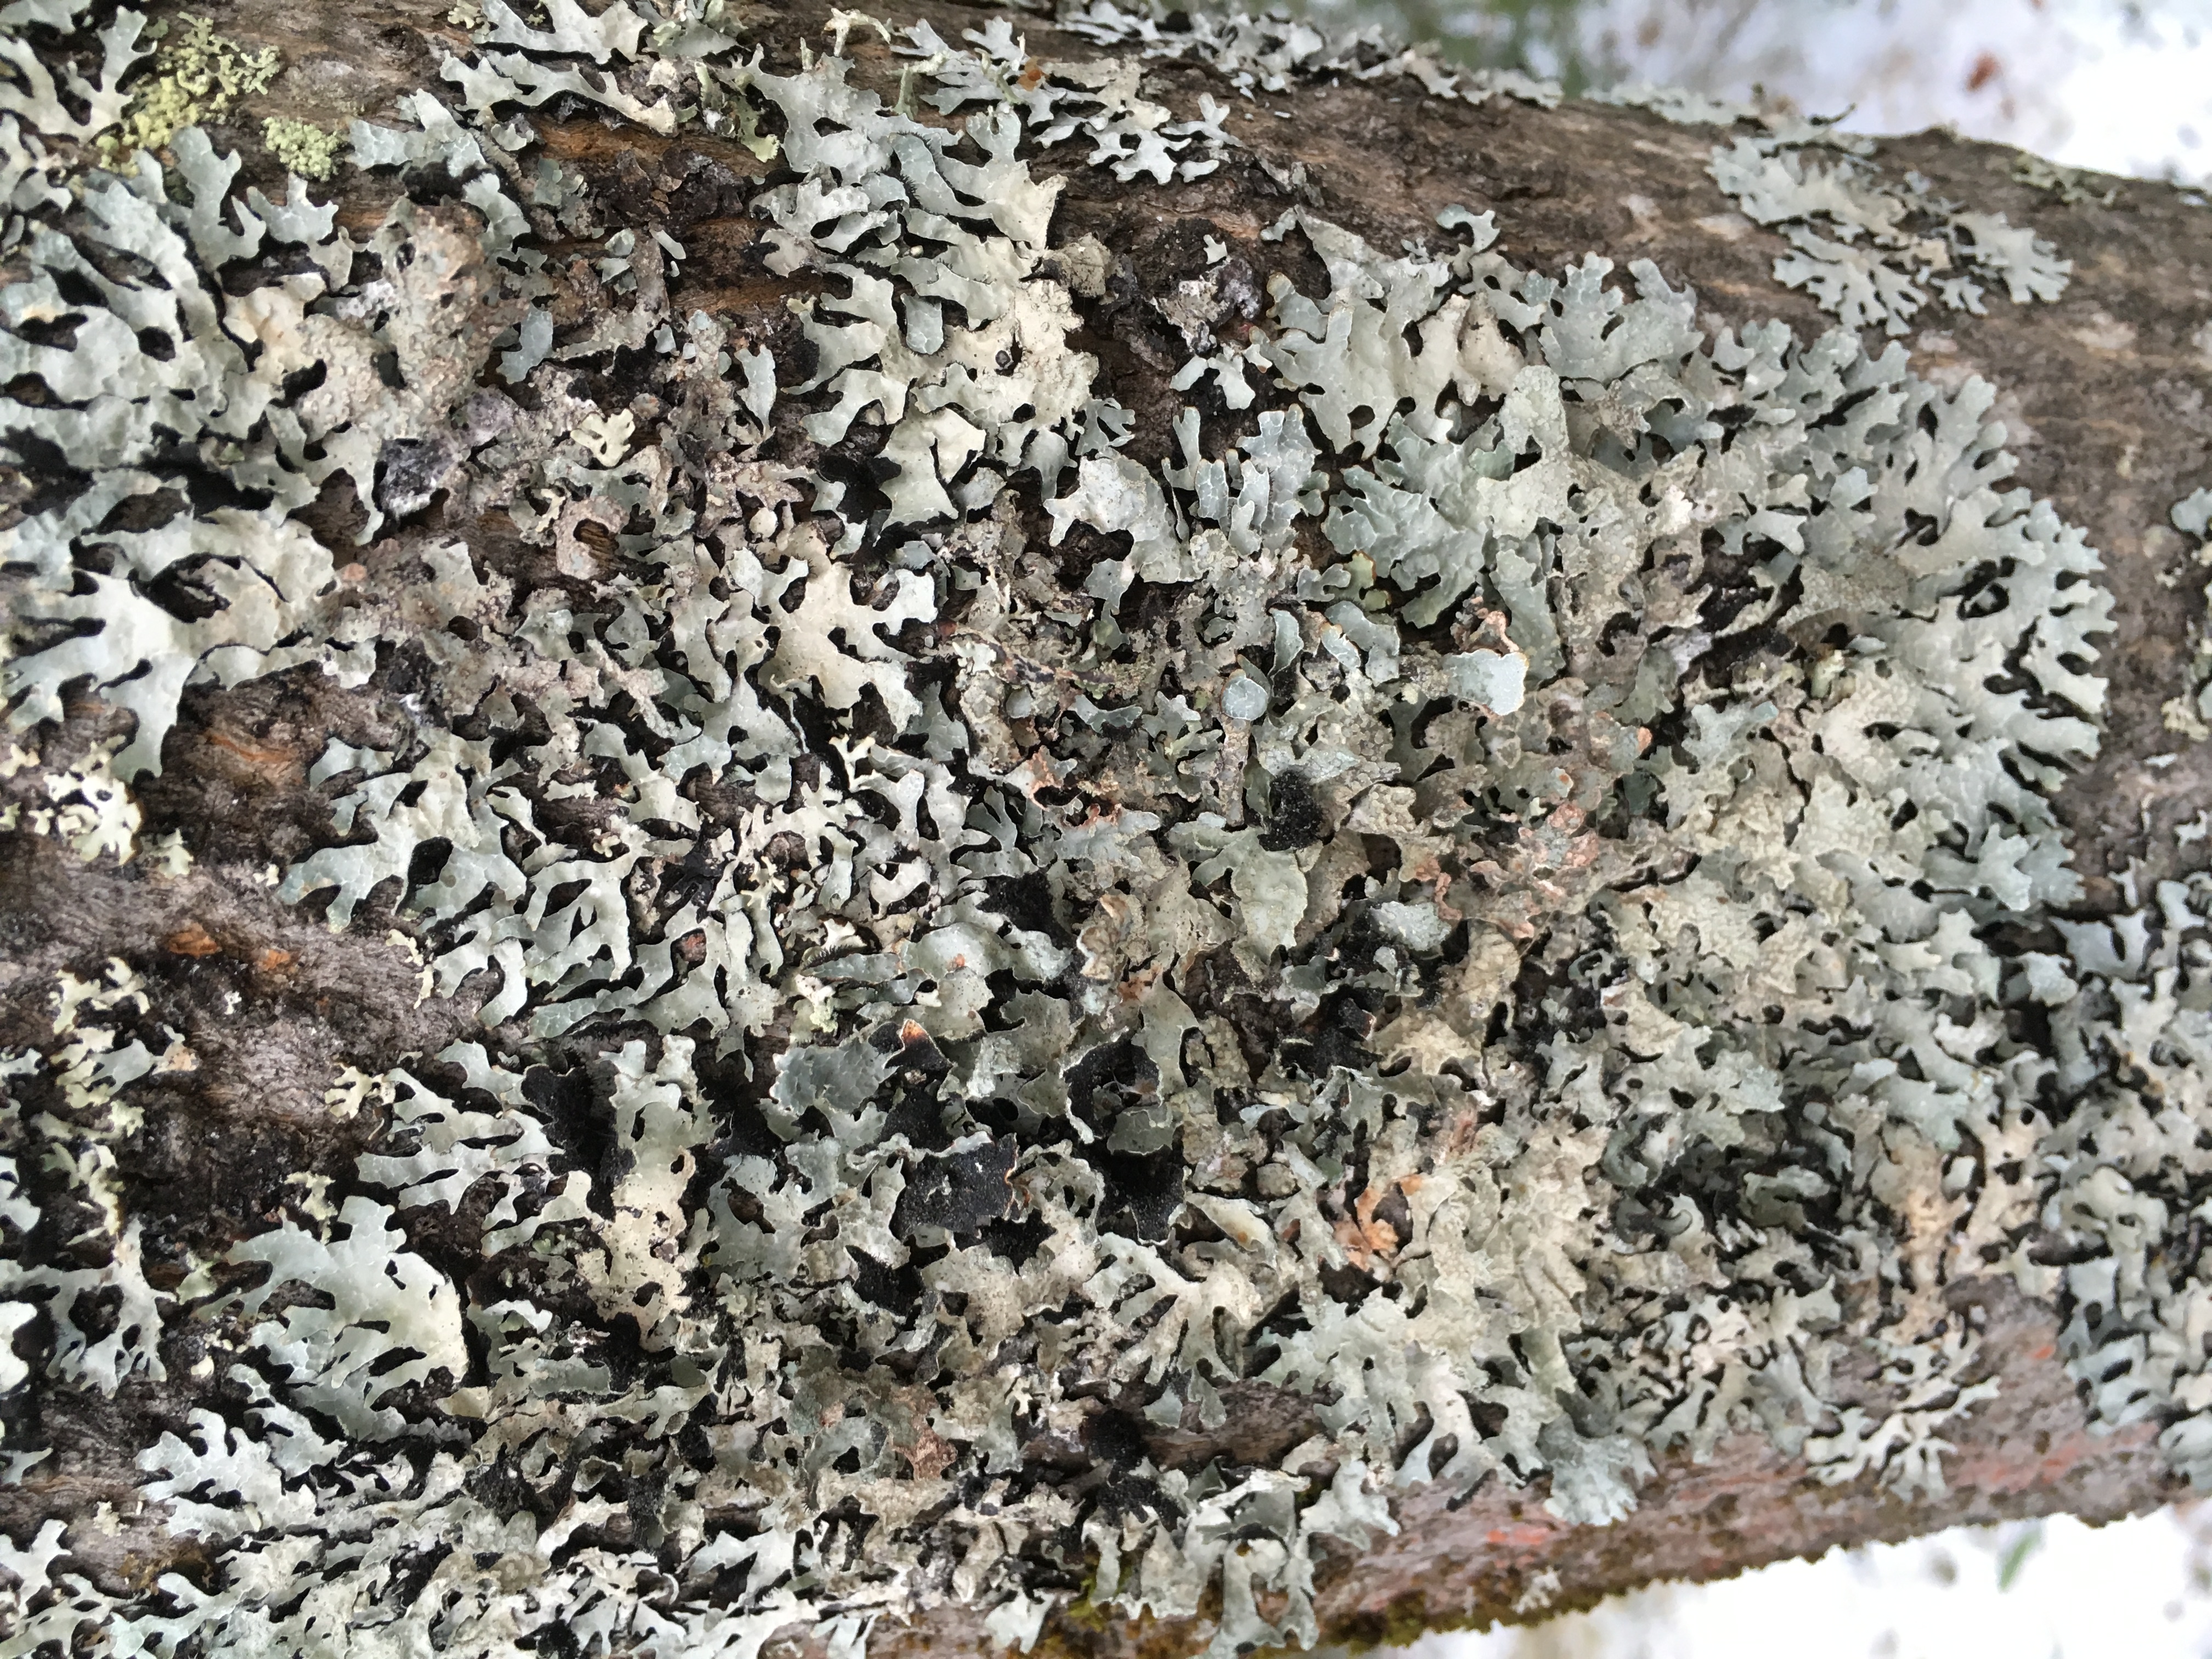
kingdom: Fungi
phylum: Ascomycota
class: Lecanoromycetes
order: Lecanorales
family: Parmeliaceae
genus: Hypogymnia
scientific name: Hypogymnia physodes
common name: Dark crottle
